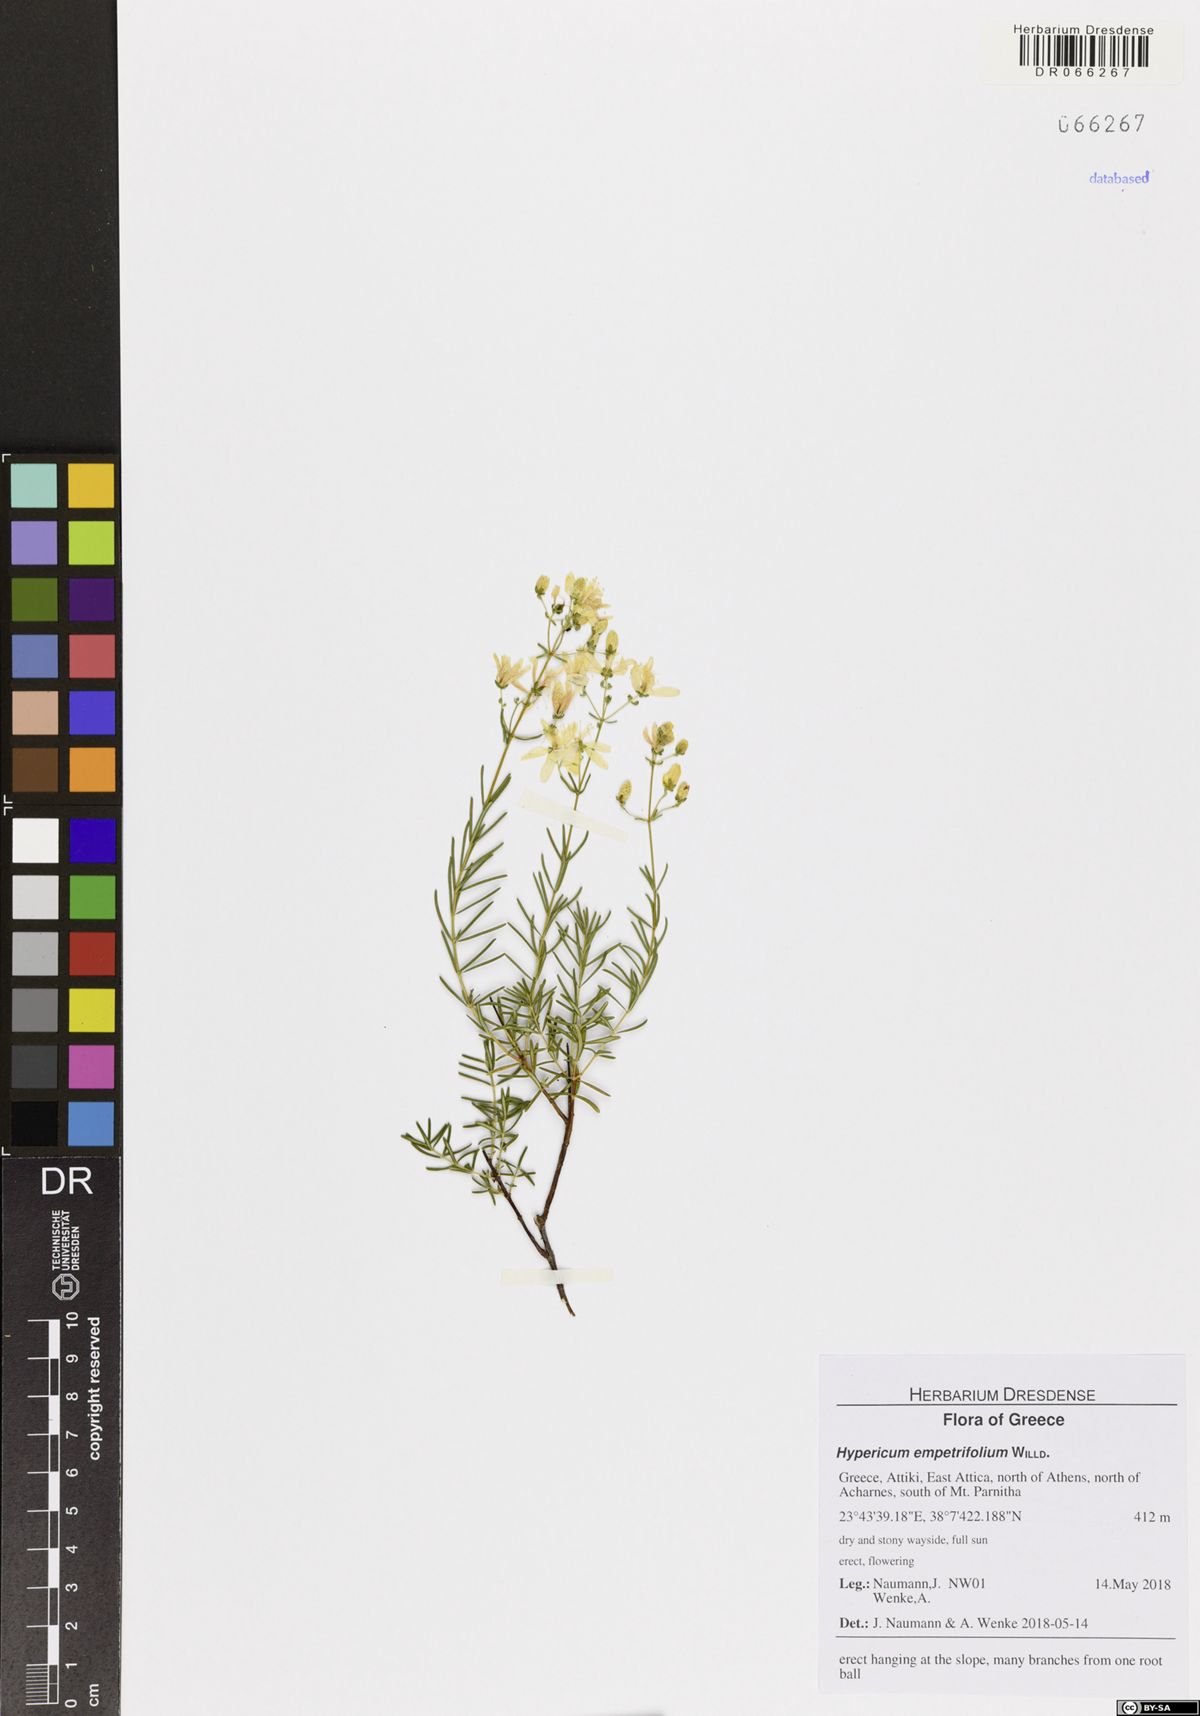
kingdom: Plantae
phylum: Tracheophyta
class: Magnoliopsida
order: Malpighiales
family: Hypericaceae
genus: Hypericum
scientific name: Hypericum empetrifolium
